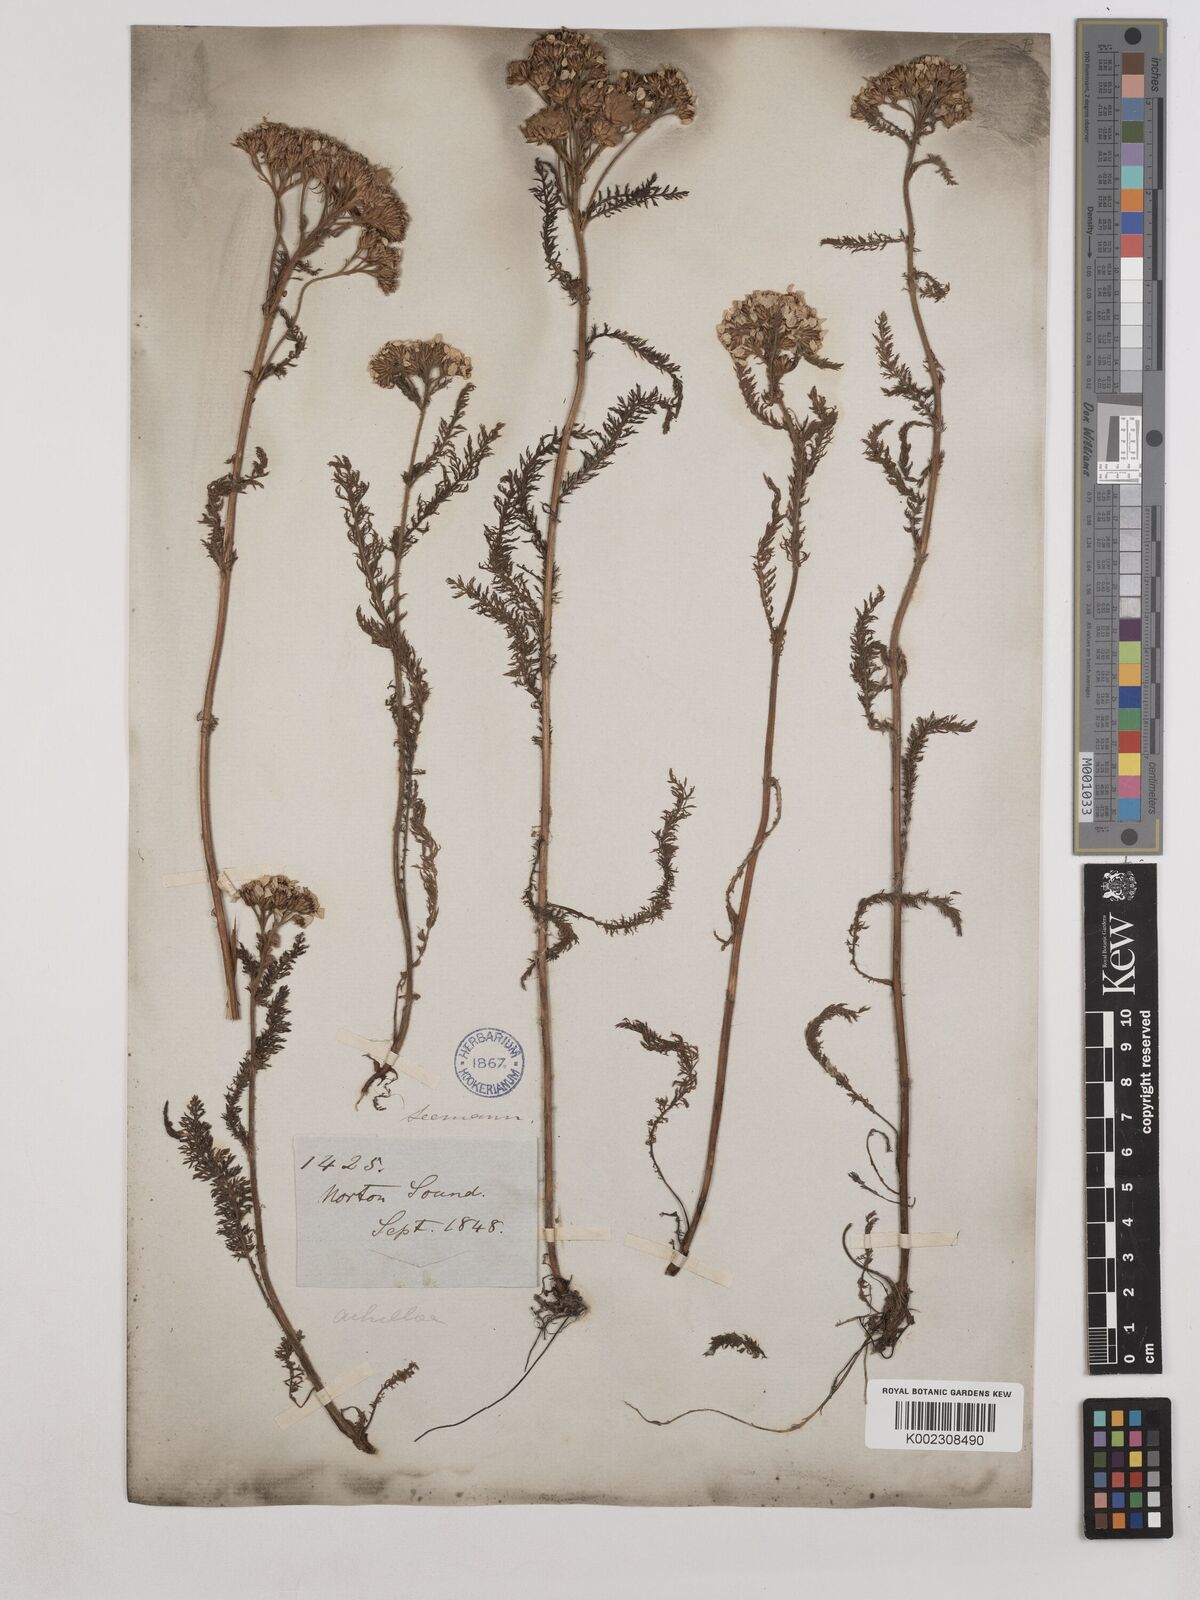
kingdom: Plantae
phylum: Tracheophyta
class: Magnoliopsida
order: Asterales
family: Asteraceae
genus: Achillea
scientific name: Achillea millefolium
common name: Yarrow
